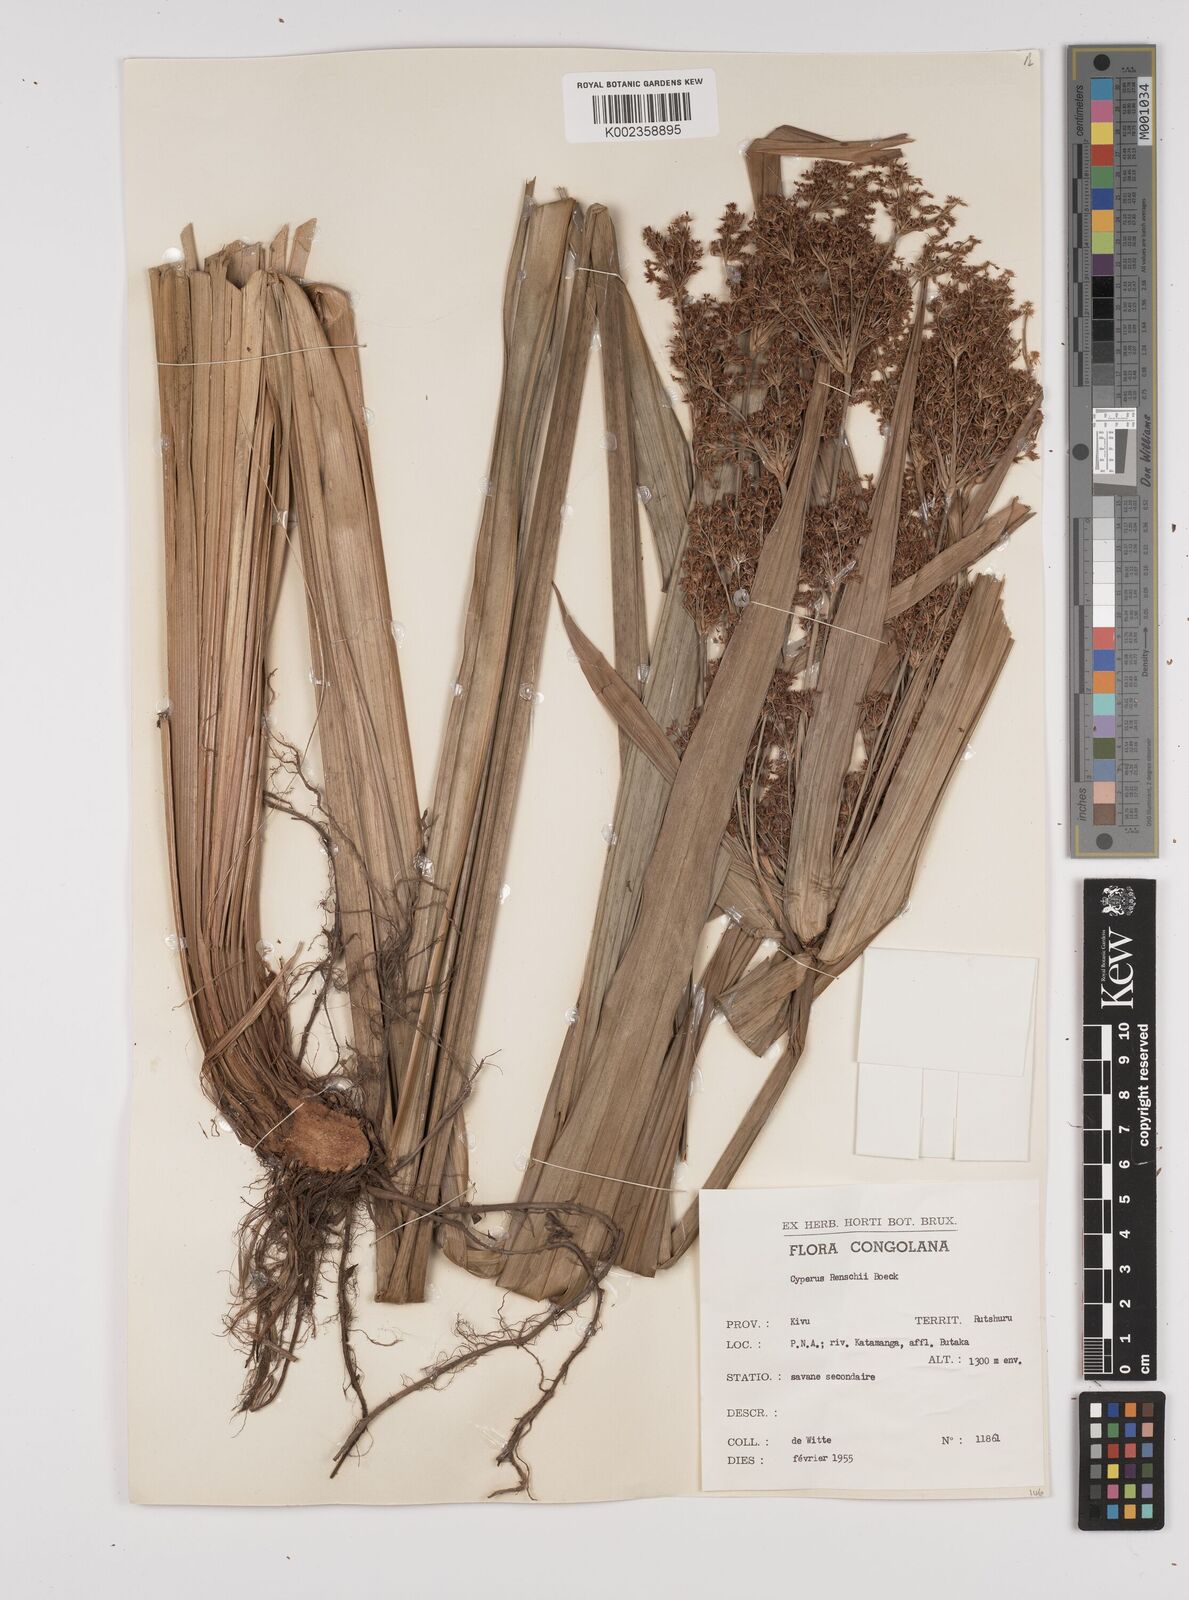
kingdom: Plantae
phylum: Tracheophyta
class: Liliopsida
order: Poales
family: Cyperaceae
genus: Cyperus
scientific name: Cyperus renschii
